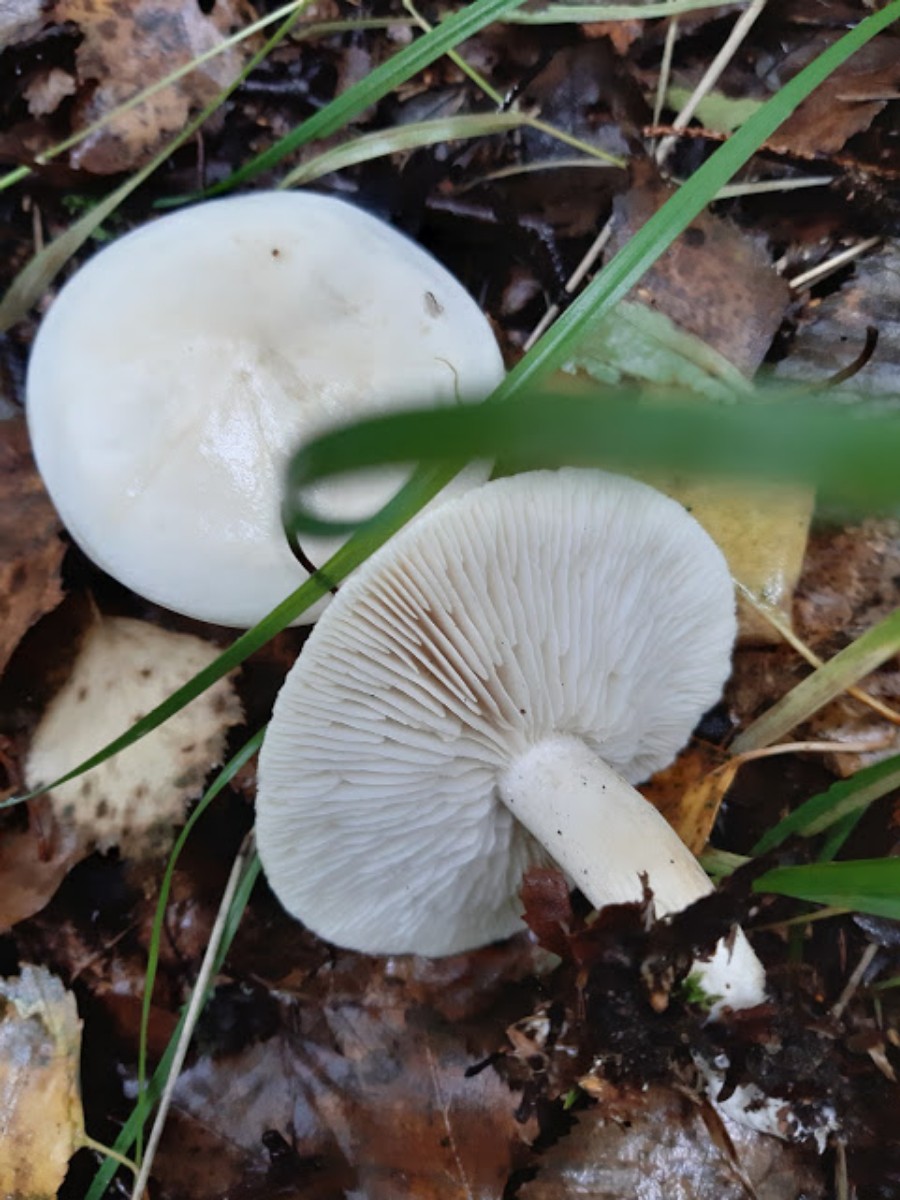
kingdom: Fungi
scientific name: Fungi
